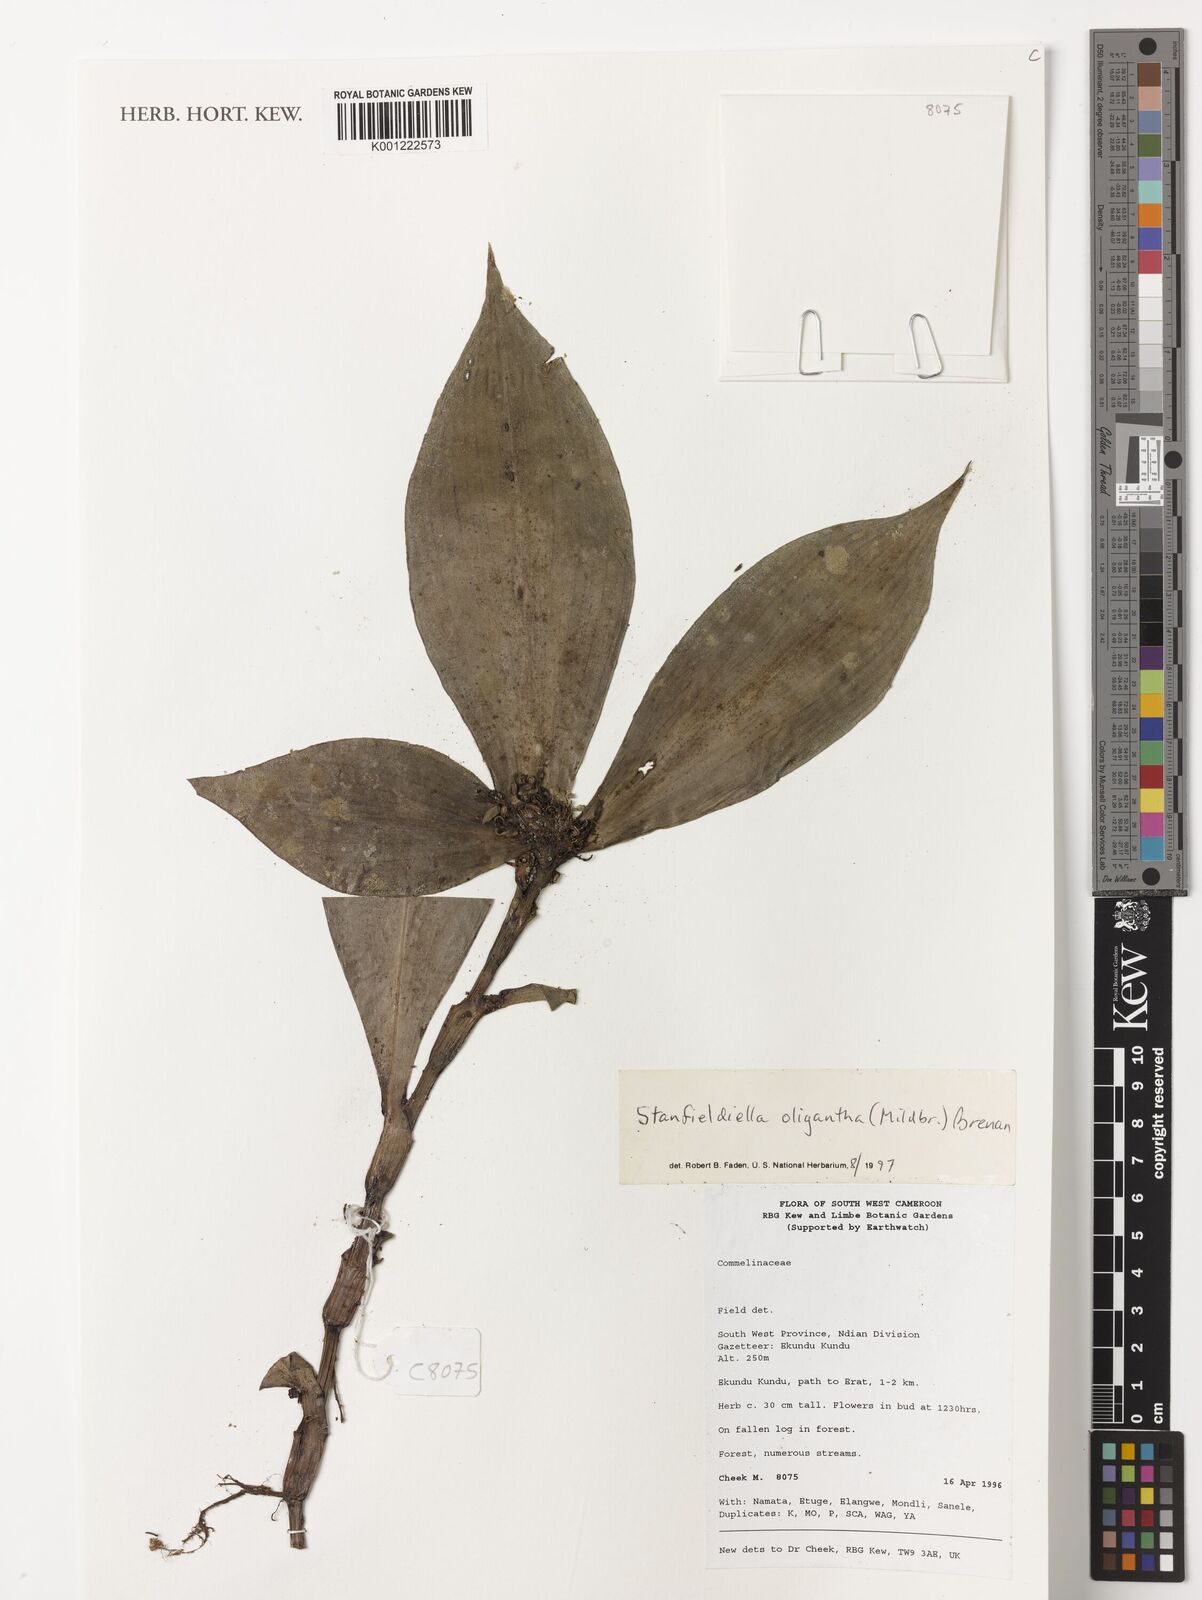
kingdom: Plantae
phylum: Tracheophyta
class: Liliopsida
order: Commelinales
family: Commelinaceae
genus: Stanfieldiella
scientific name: Stanfieldiella oligantha
